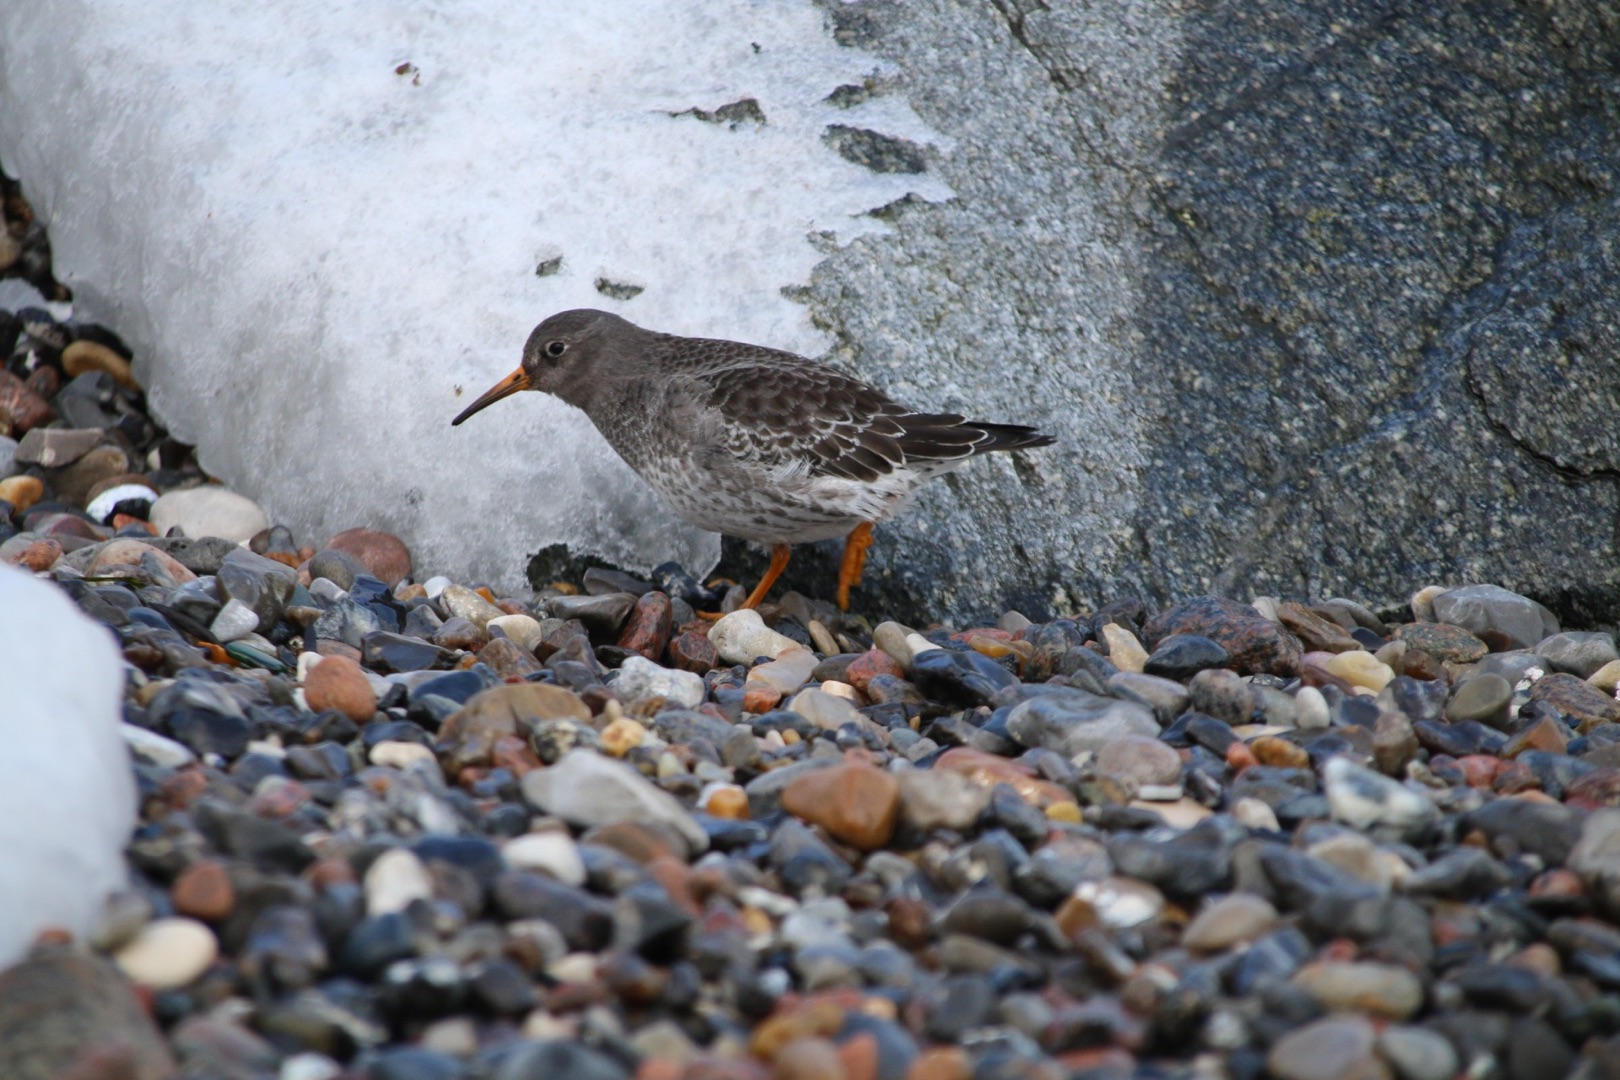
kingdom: Animalia
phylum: Chordata
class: Aves
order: Charadriiformes
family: Scolopacidae
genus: Calidris
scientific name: Calidris maritima
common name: Sortgrå ryle
